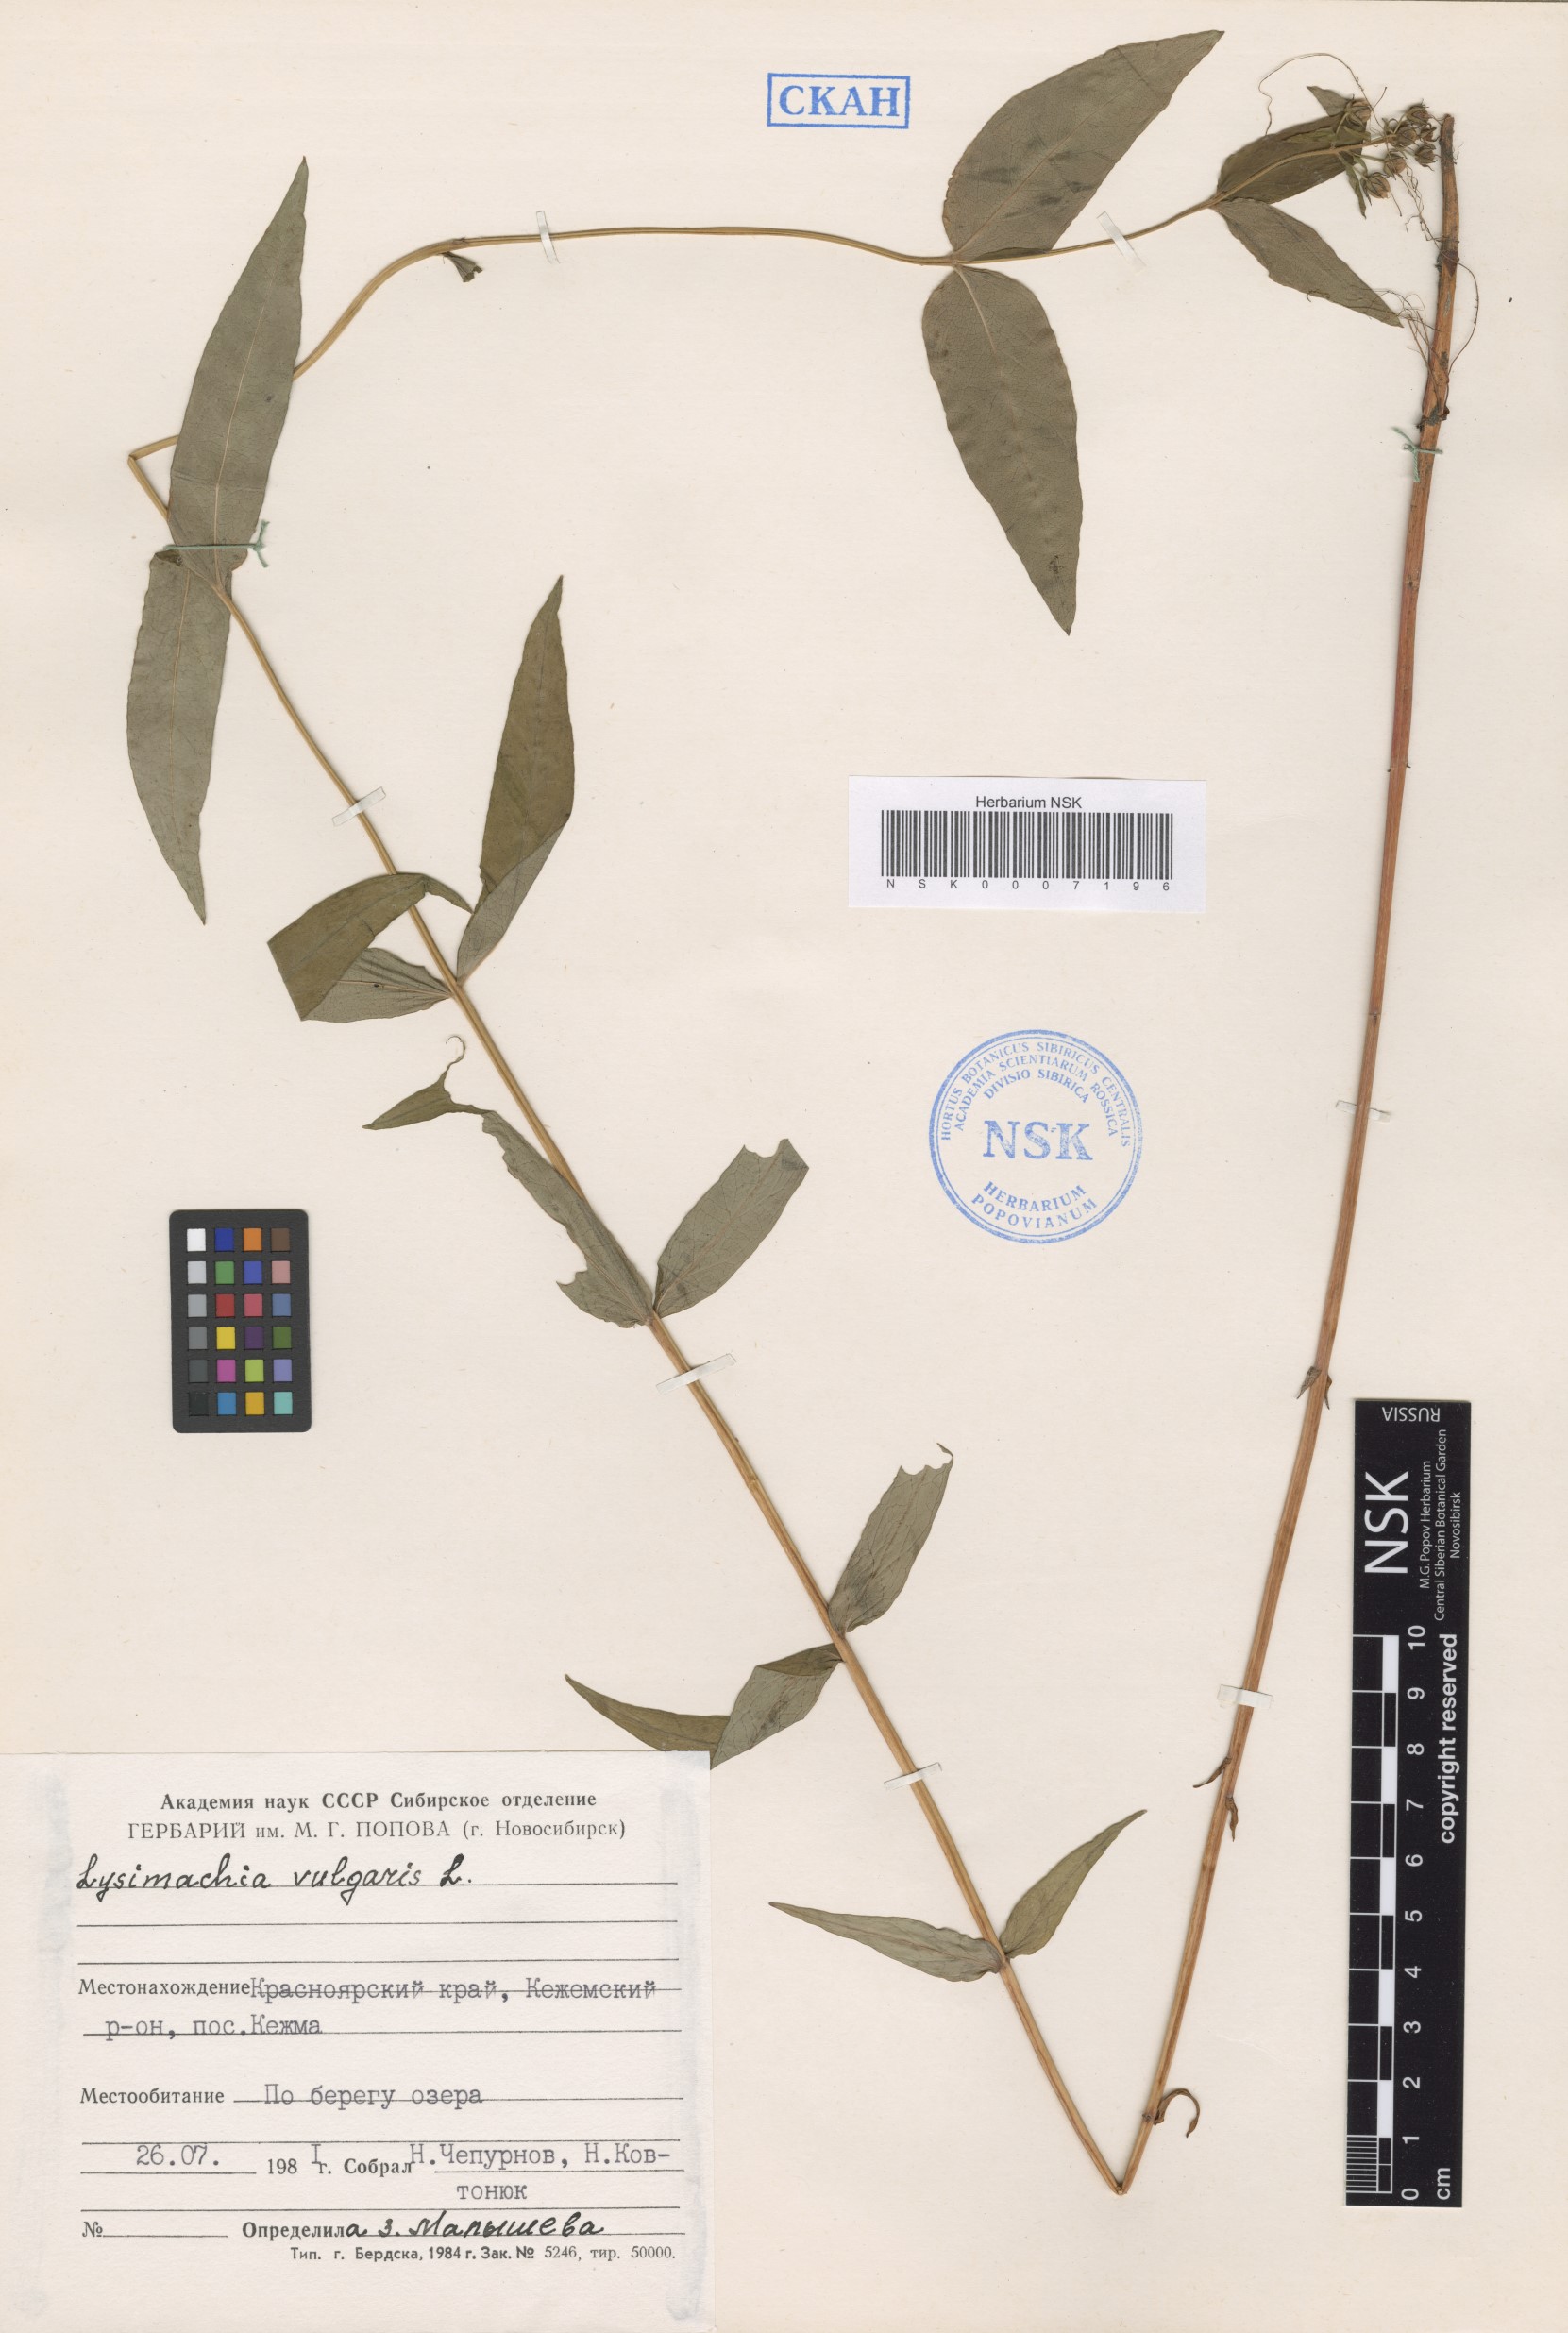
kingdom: Plantae
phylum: Tracheophyta
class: Magnoliopsida
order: Ericales
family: Primulaceae
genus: Lysimachia
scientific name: Lysimachia vulgaris
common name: Yellow loosestrife
